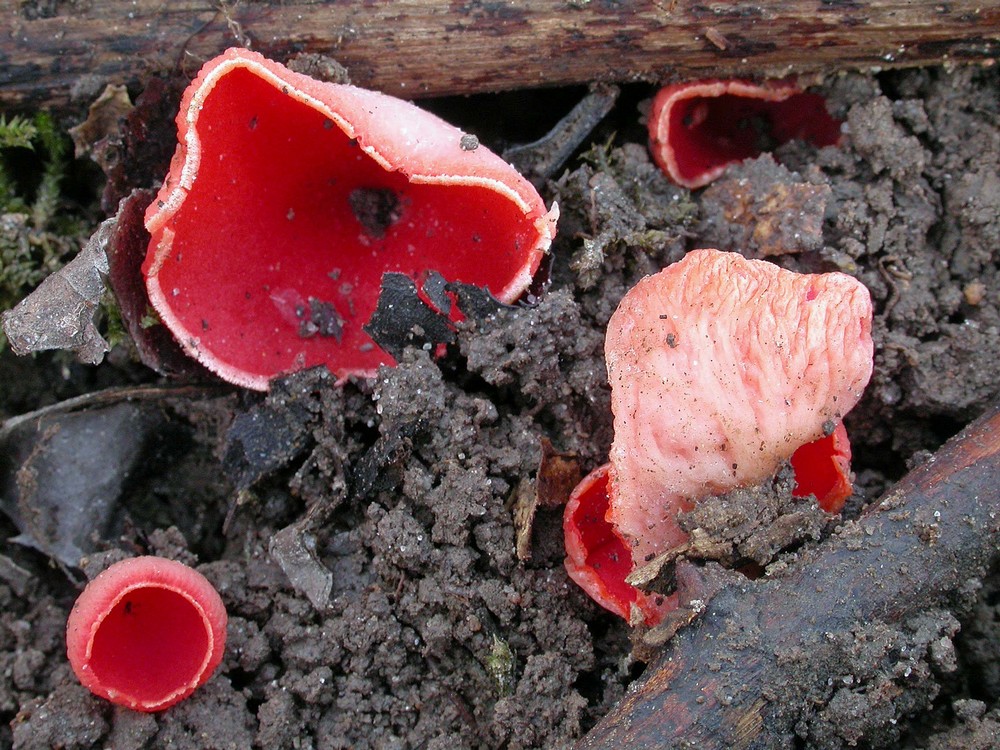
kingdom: Fungi
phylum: Ascomycota
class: Pezizomycetes
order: Pezizales
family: Sarcoscyphaceae
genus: Sarcoscypha
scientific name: Sarcoscypha coccinea
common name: skarlagen-pragtbæger
